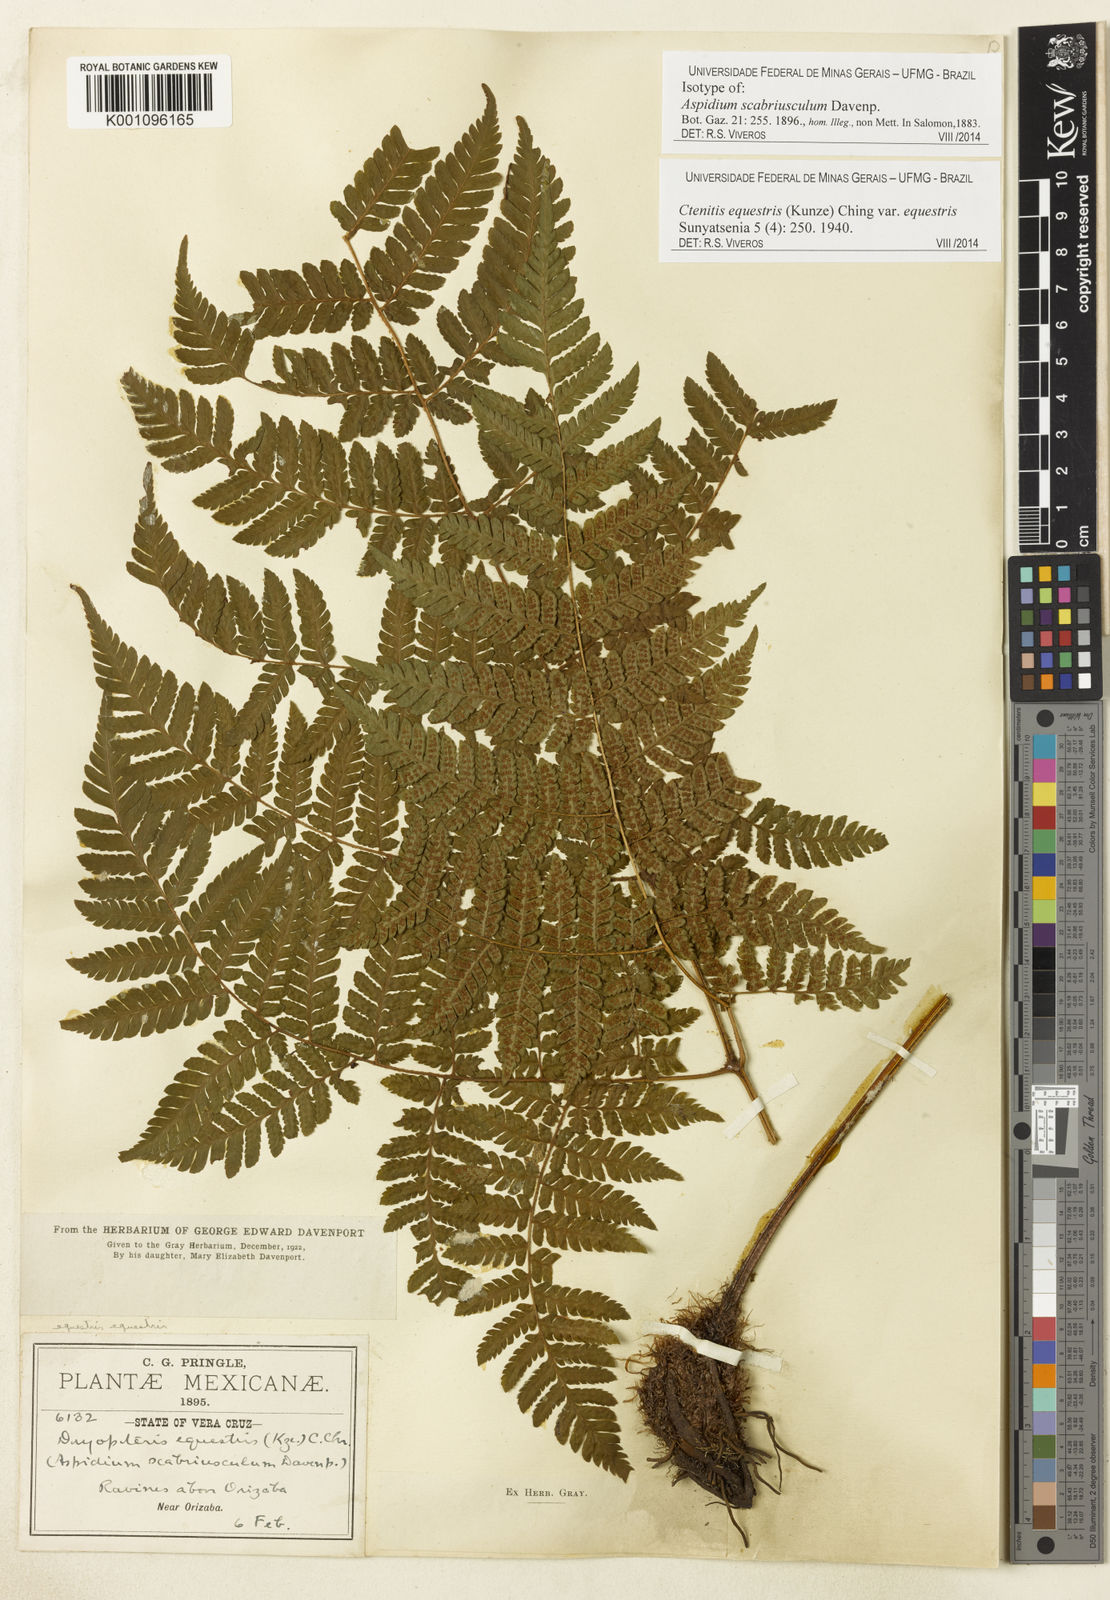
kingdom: Plantae
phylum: Tracheophyta
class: Polypodiopsida
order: Polypodiales
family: Dryopteridaceae
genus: Ctenitis
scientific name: Ctenitis equestris
